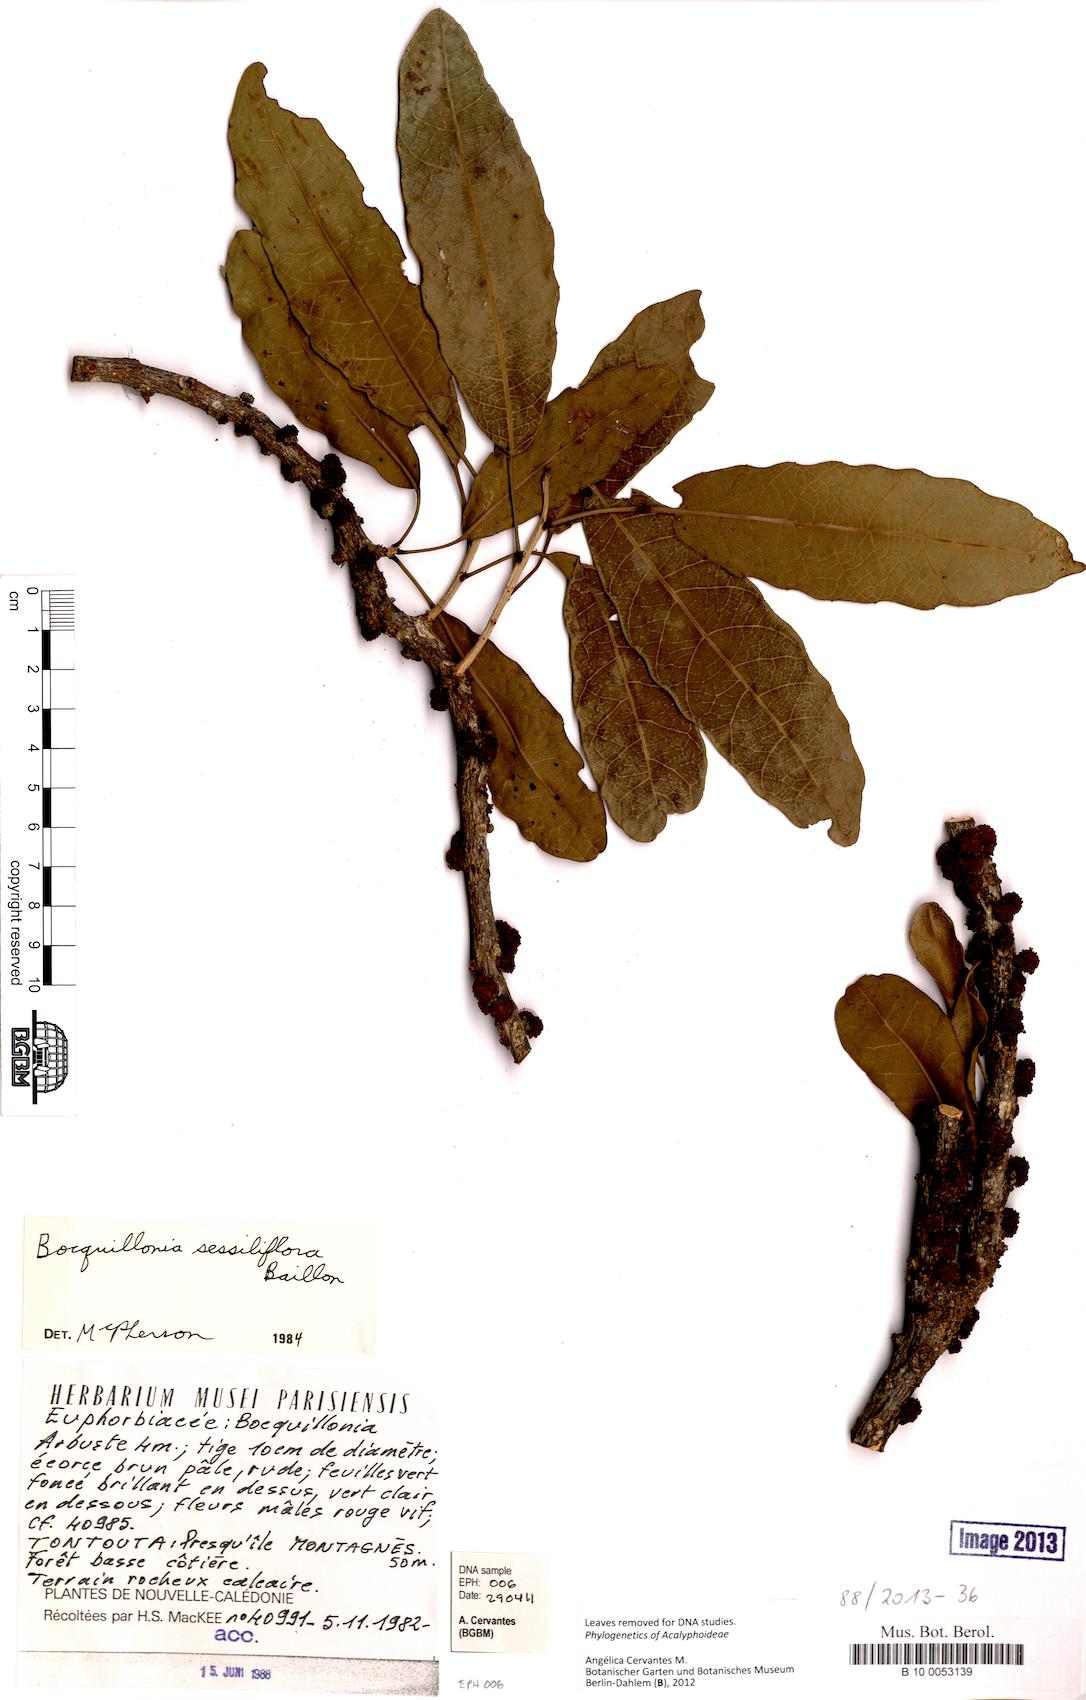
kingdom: Plantae
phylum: Tracheophyta
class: Magnoliopsida
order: Malpighiales
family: Euphorbiaceae
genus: Bocquillonia
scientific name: Bocquillonia sessiliflora
